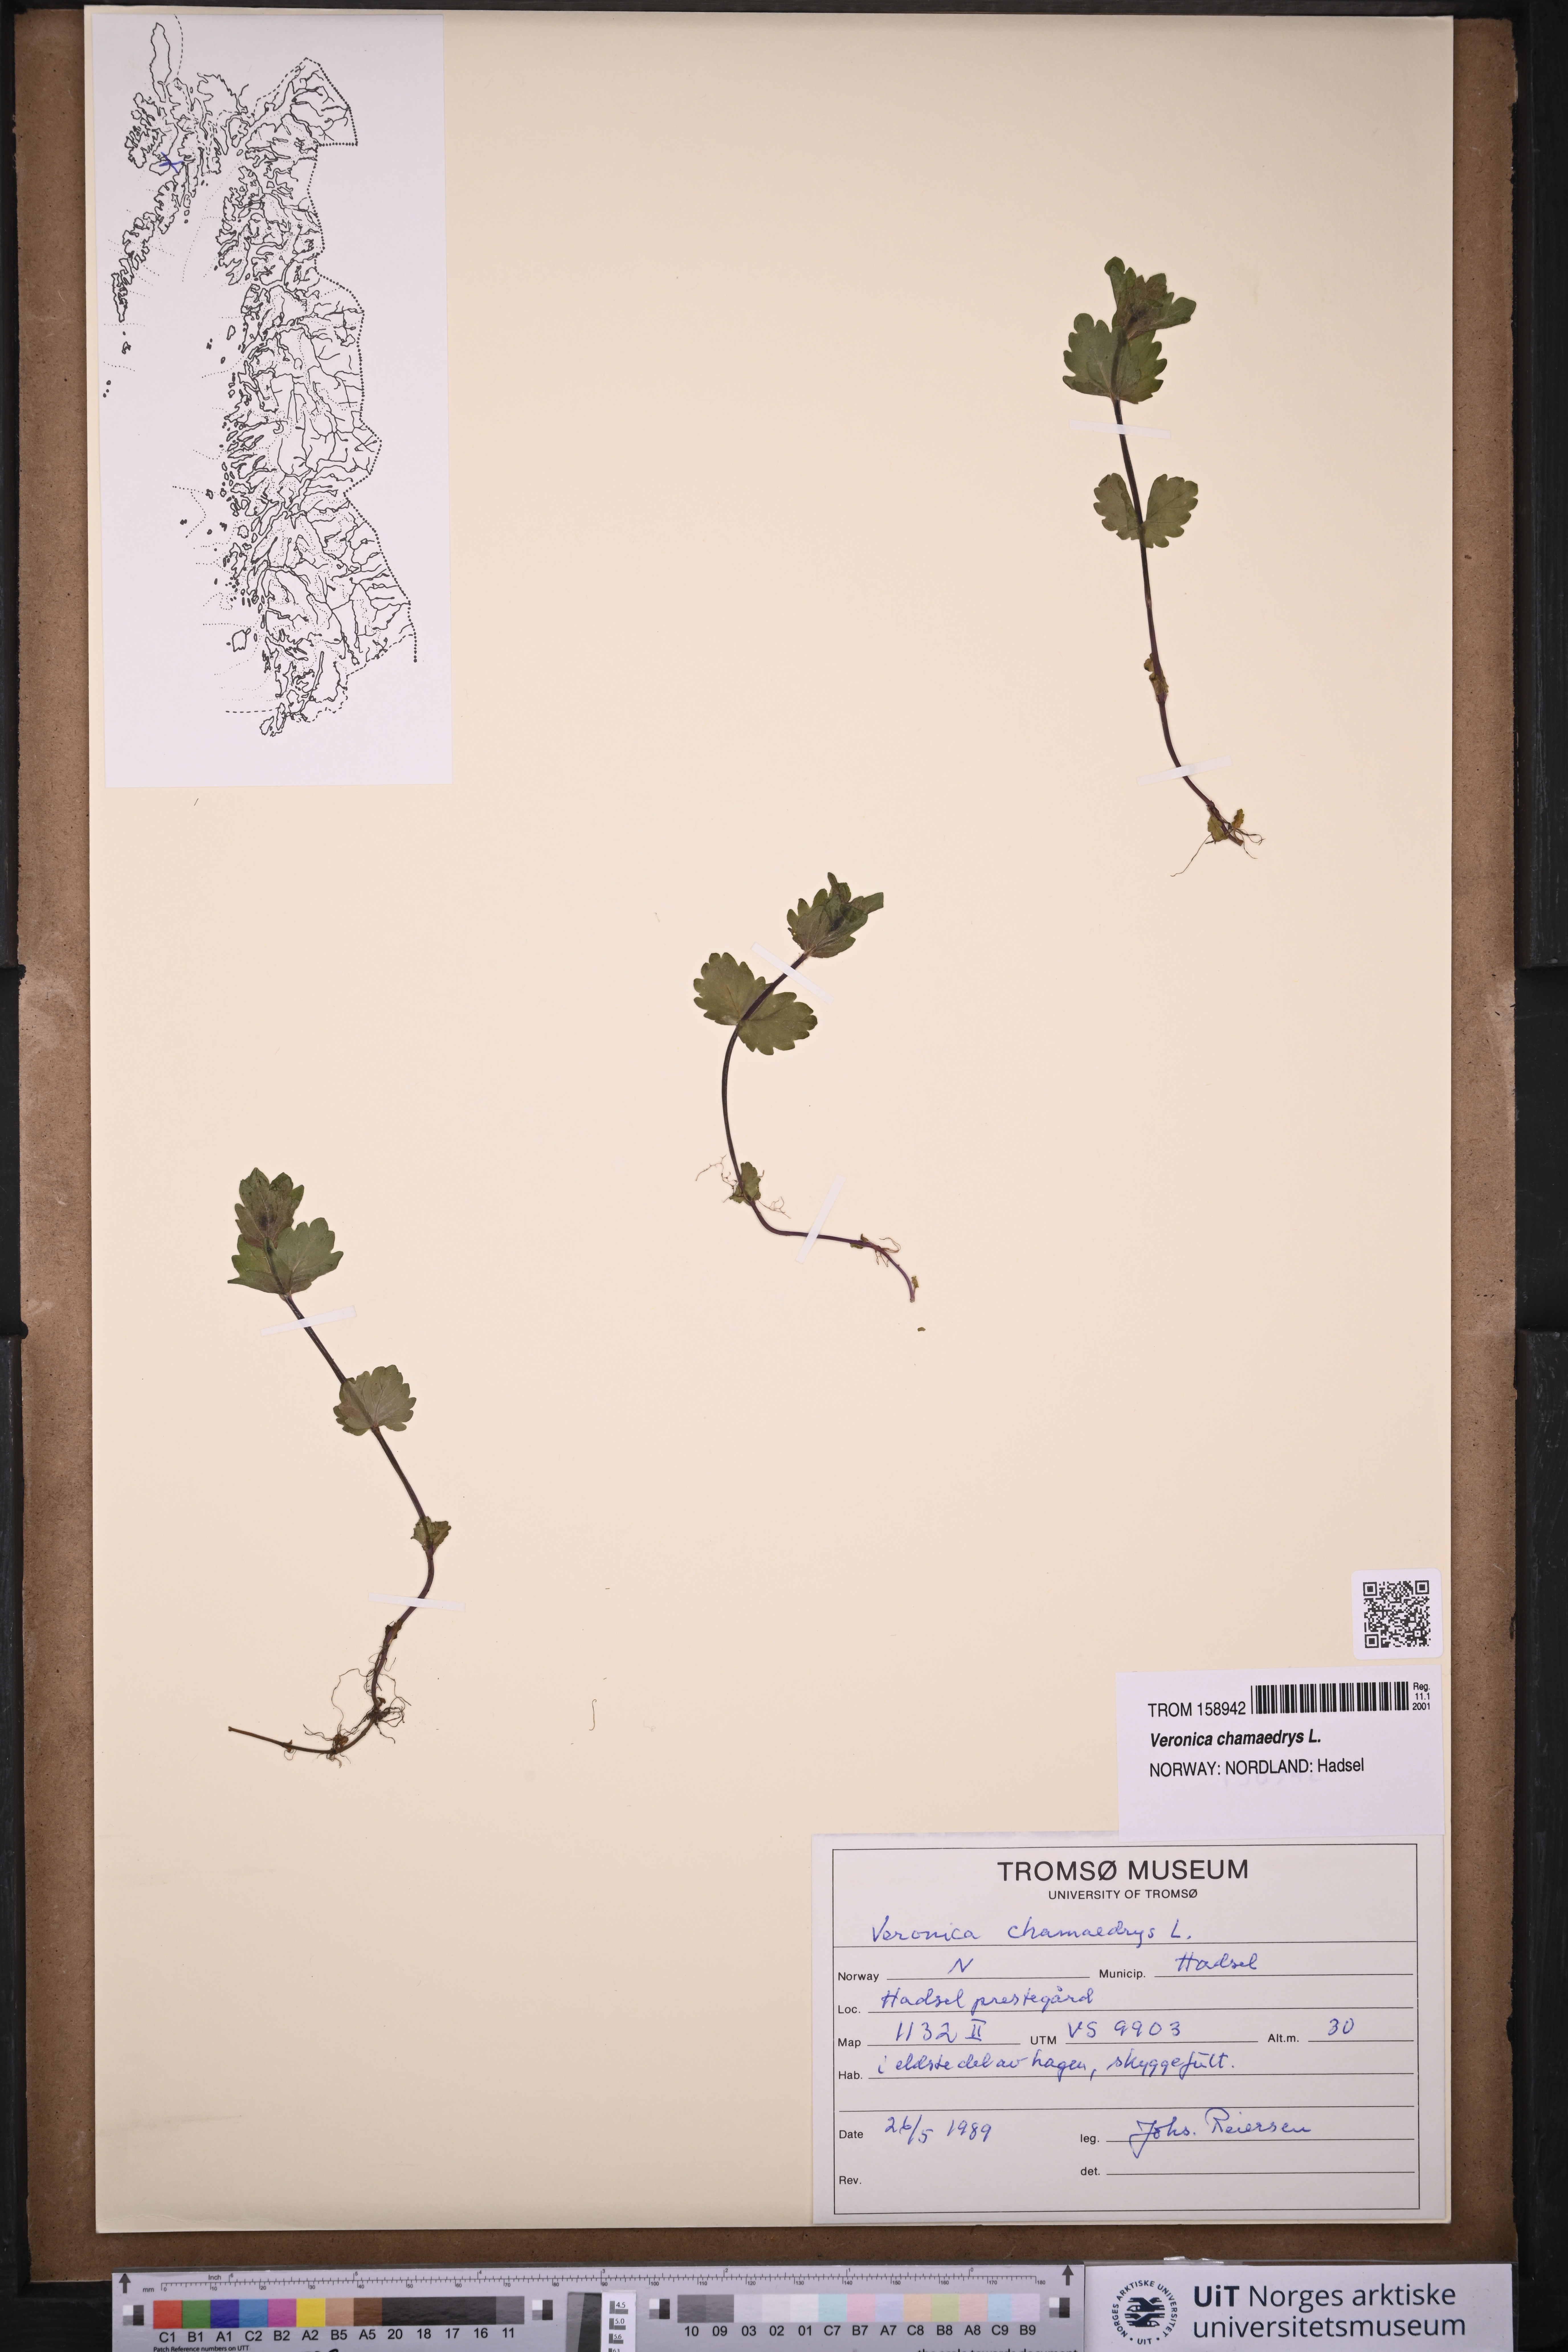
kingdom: Plantae
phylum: Tracheophyta
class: Magnoliopsida
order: Lamiales
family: Plantaginaceae
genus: Veronica
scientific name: Veronica chamaedrys
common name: Germander speedwell
